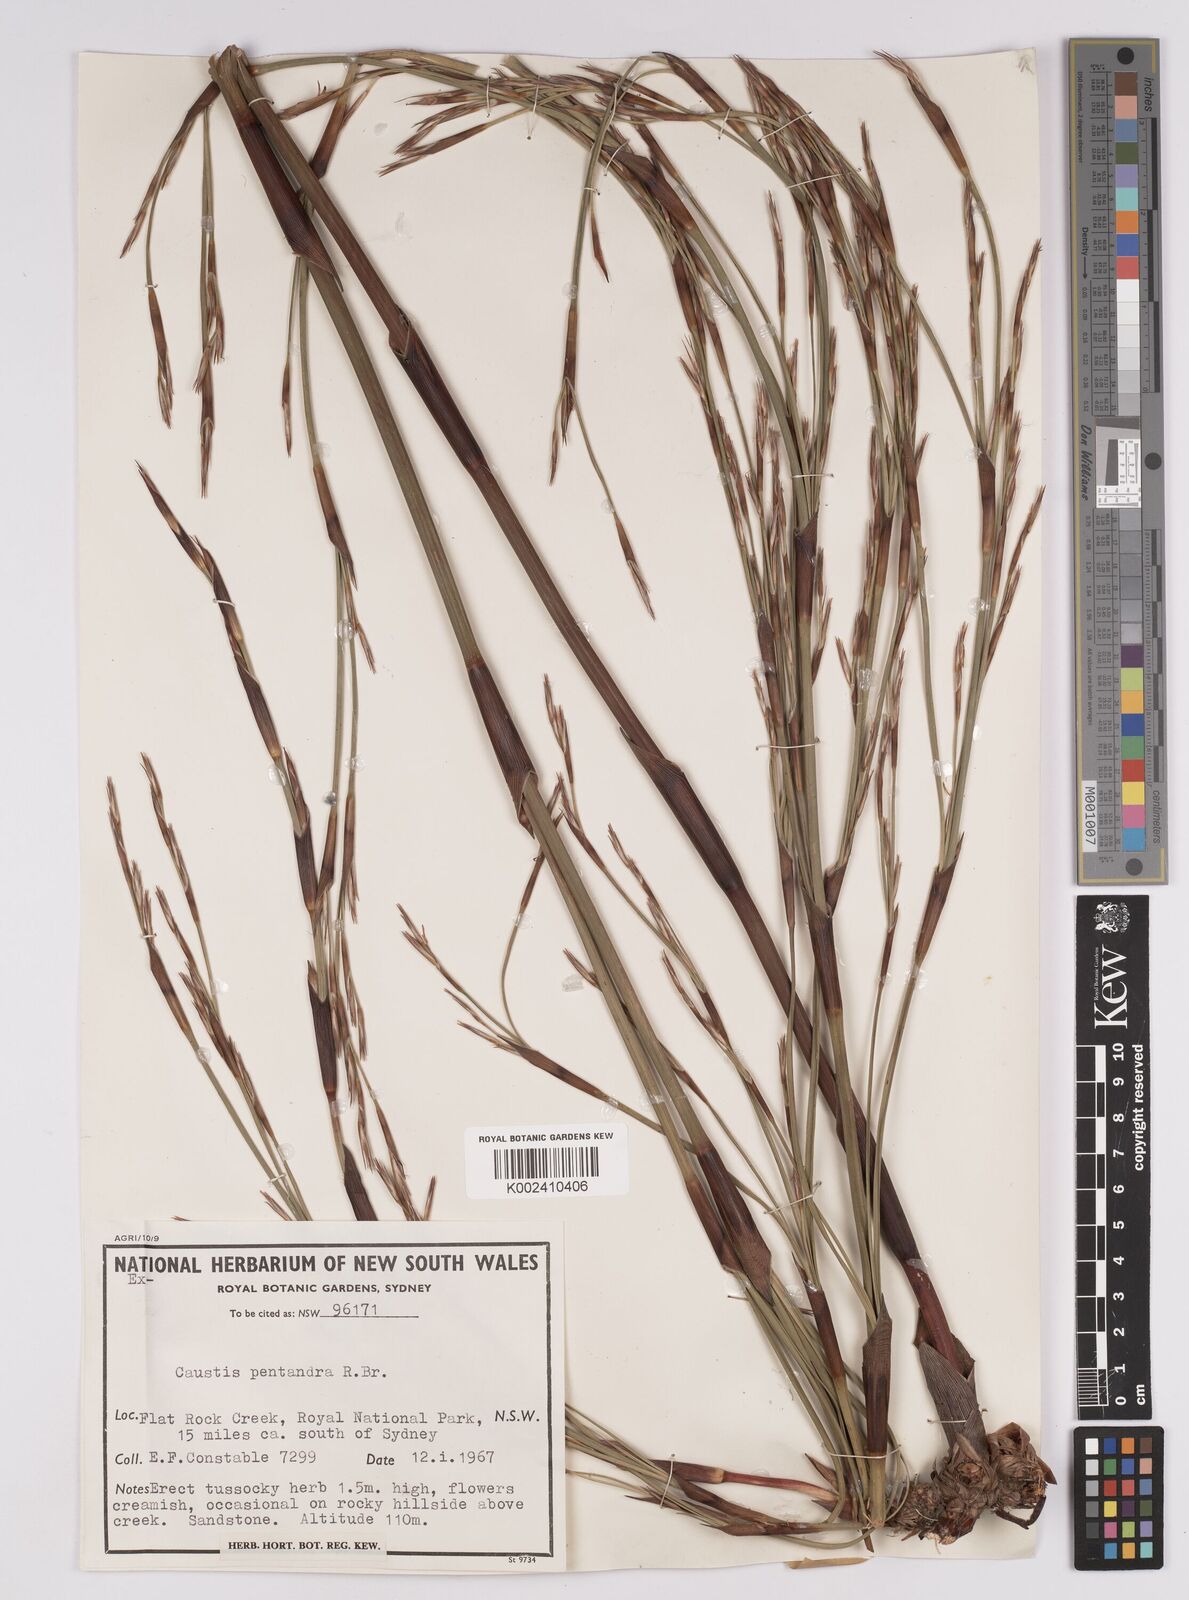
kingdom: Plantae
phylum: Tracheophyta
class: Liliopsida
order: Poales
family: Cyperaceae
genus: Caustis
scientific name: Caustis pentandra
